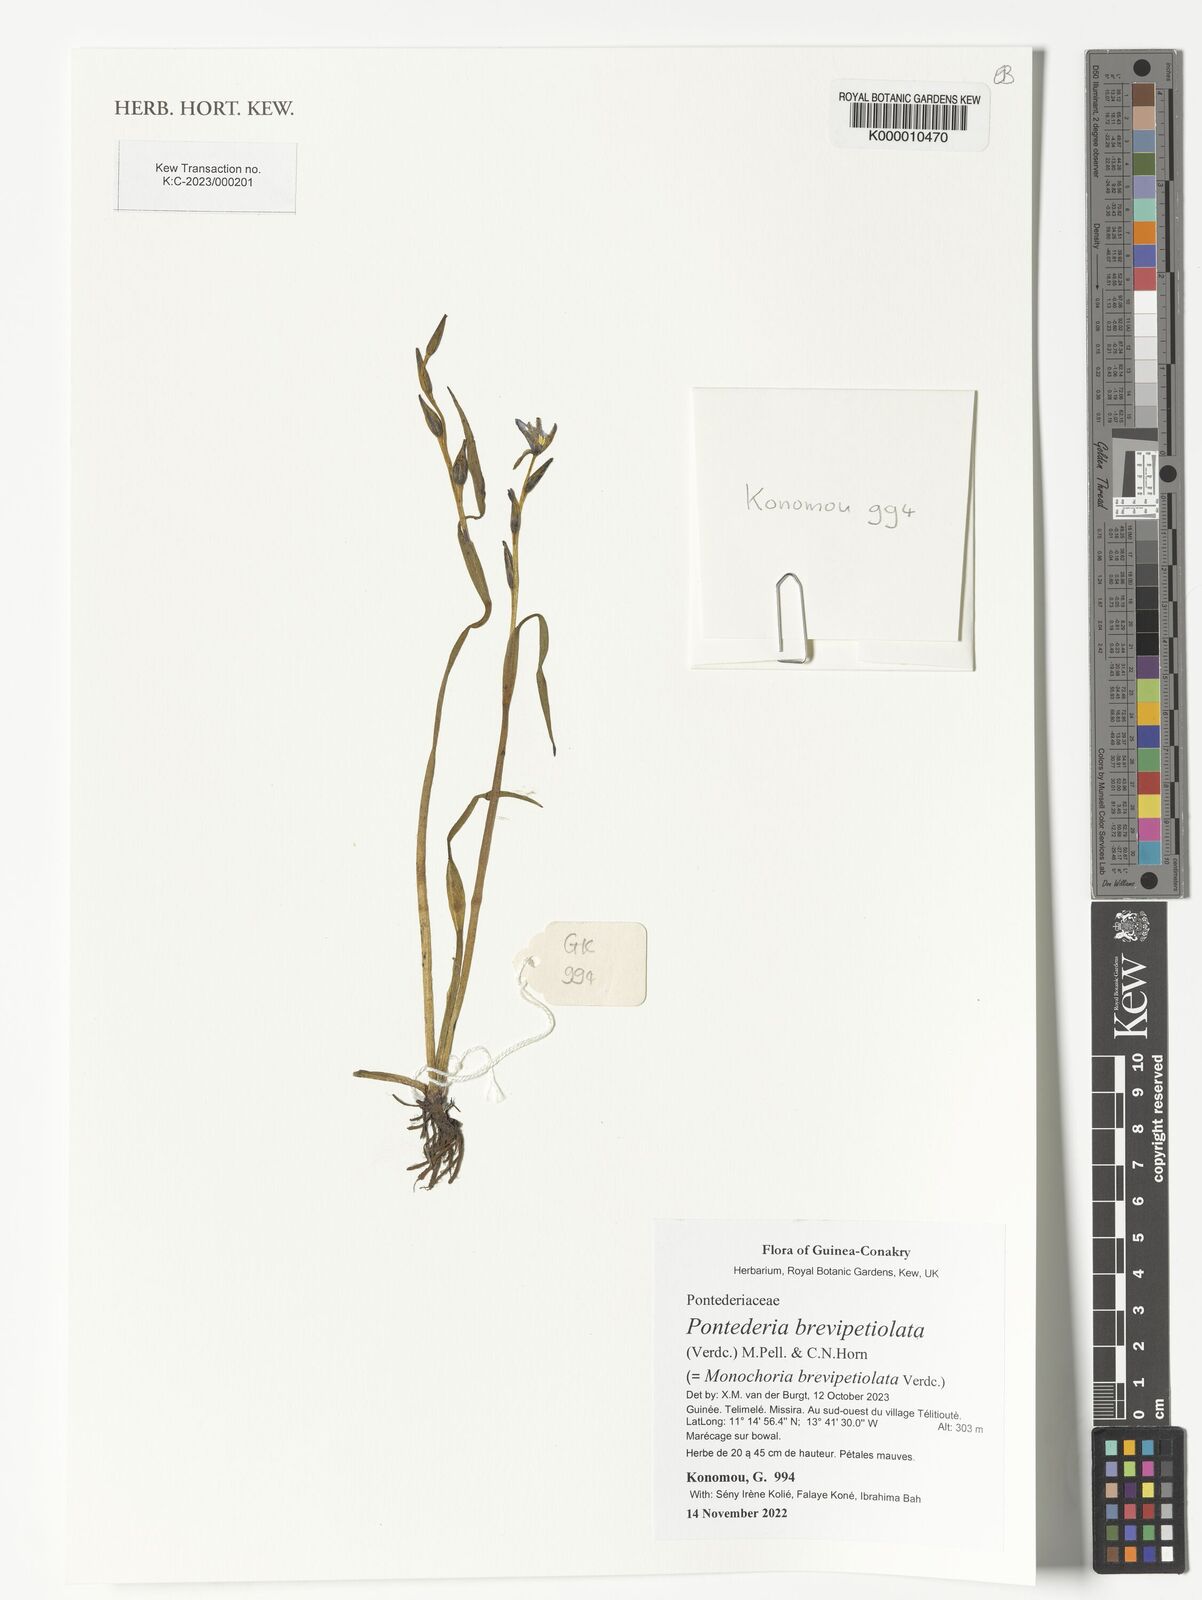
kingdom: Plantae
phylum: Tracheophyta
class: Liliopsida
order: Commelinales
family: Pontederiaceae
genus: Pontederia
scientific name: Pontederia brevipetiolata
